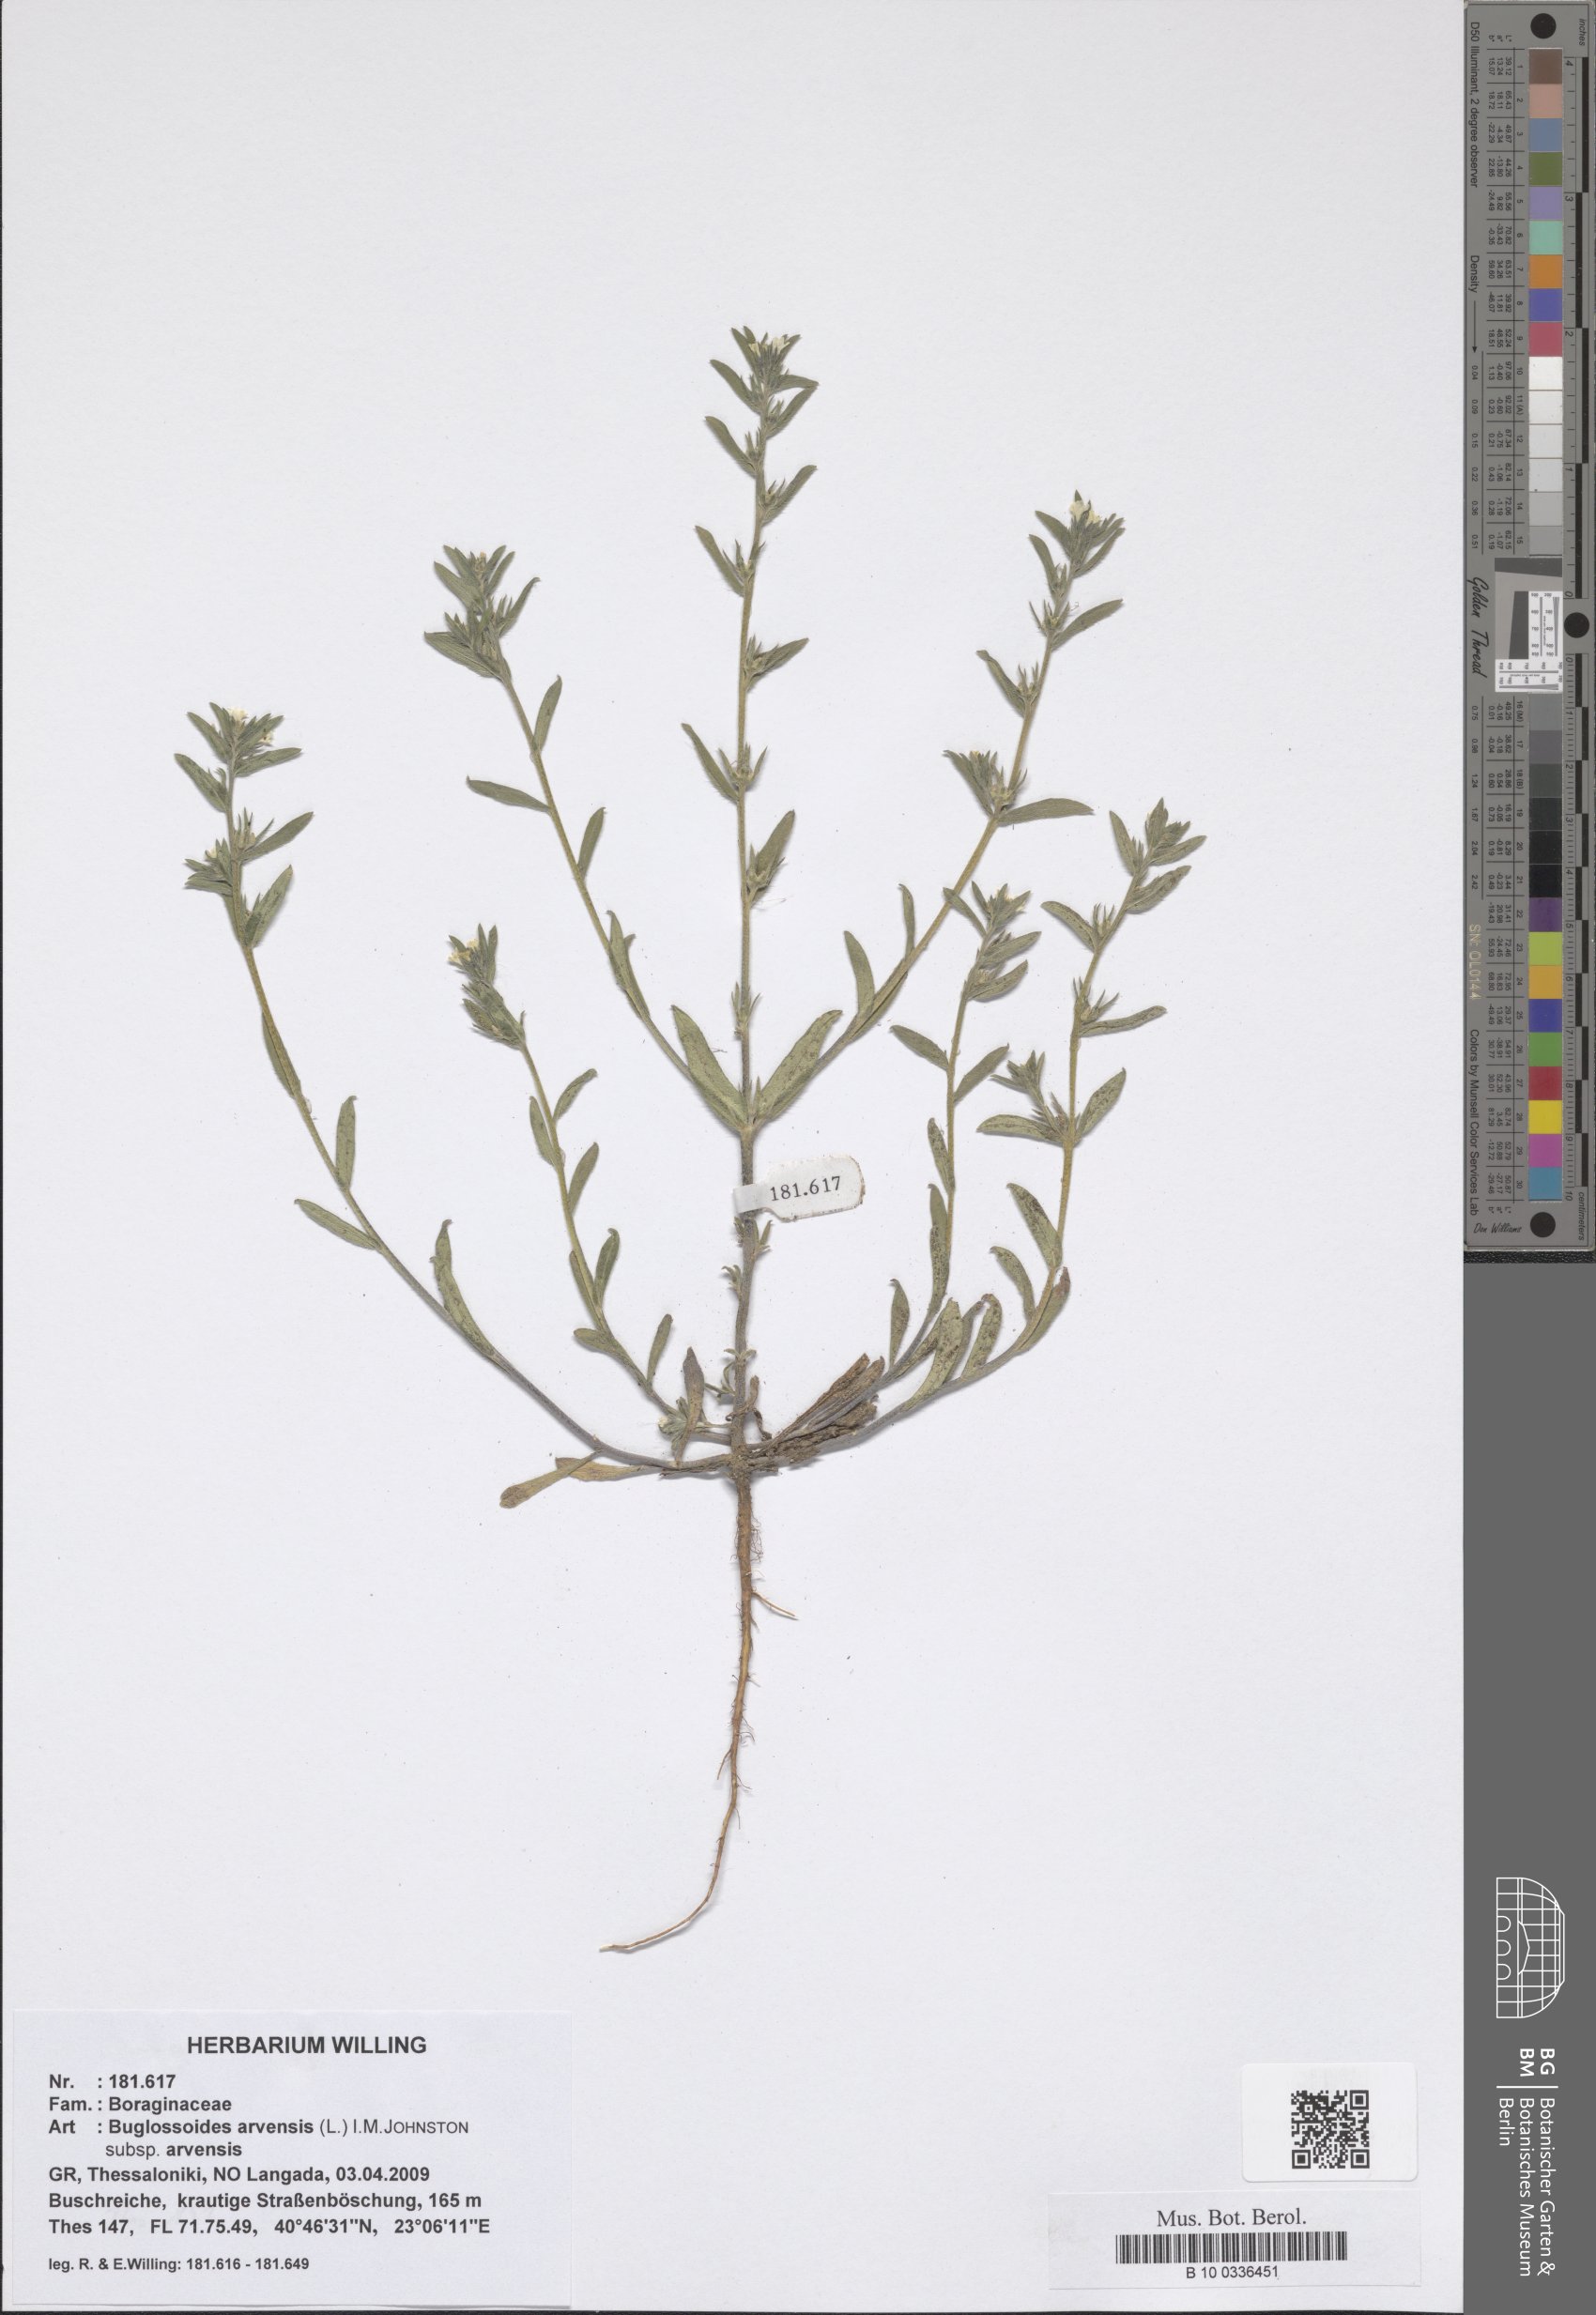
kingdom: Plantae
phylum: Tracheophyta
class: Magnoliopsida
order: Boraginales
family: Boraginaceae
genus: Buglossoides
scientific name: Buglossoides arvensis
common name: Corn gromwell
